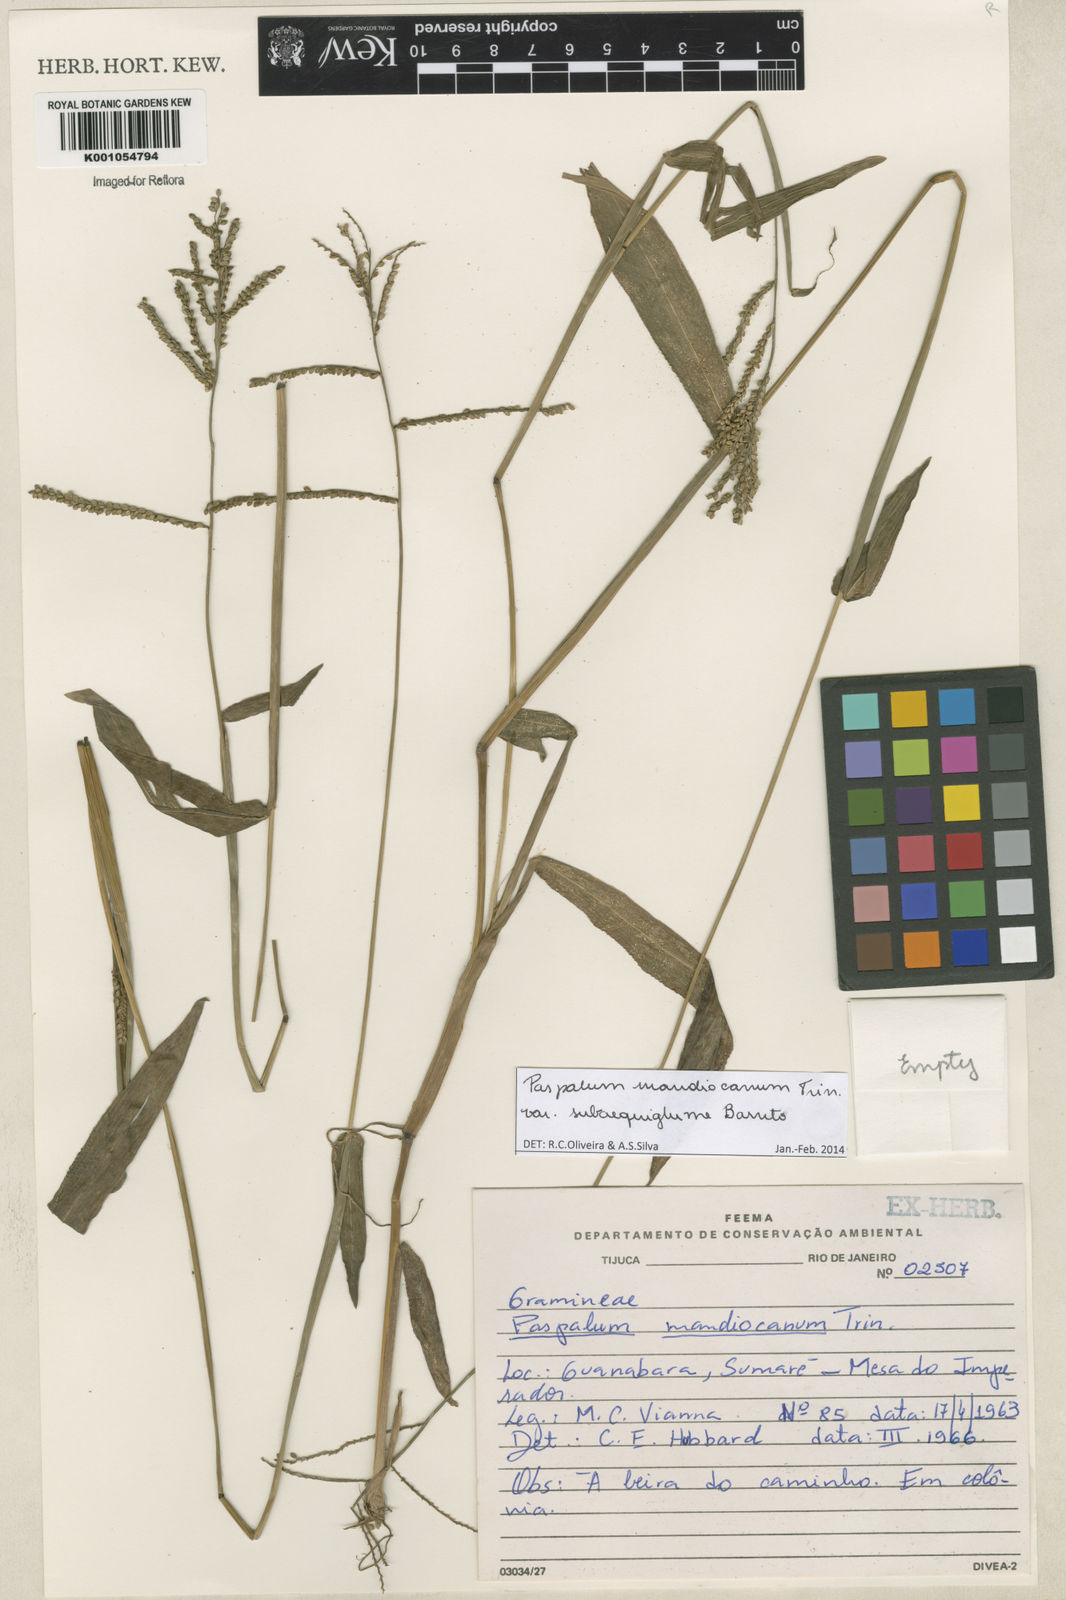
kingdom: Plantae
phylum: Tracheophyta
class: Liliopsida
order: Poales
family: Poaceae
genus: Paspalum
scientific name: Paspalum mandiocanum
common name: Paspalum
